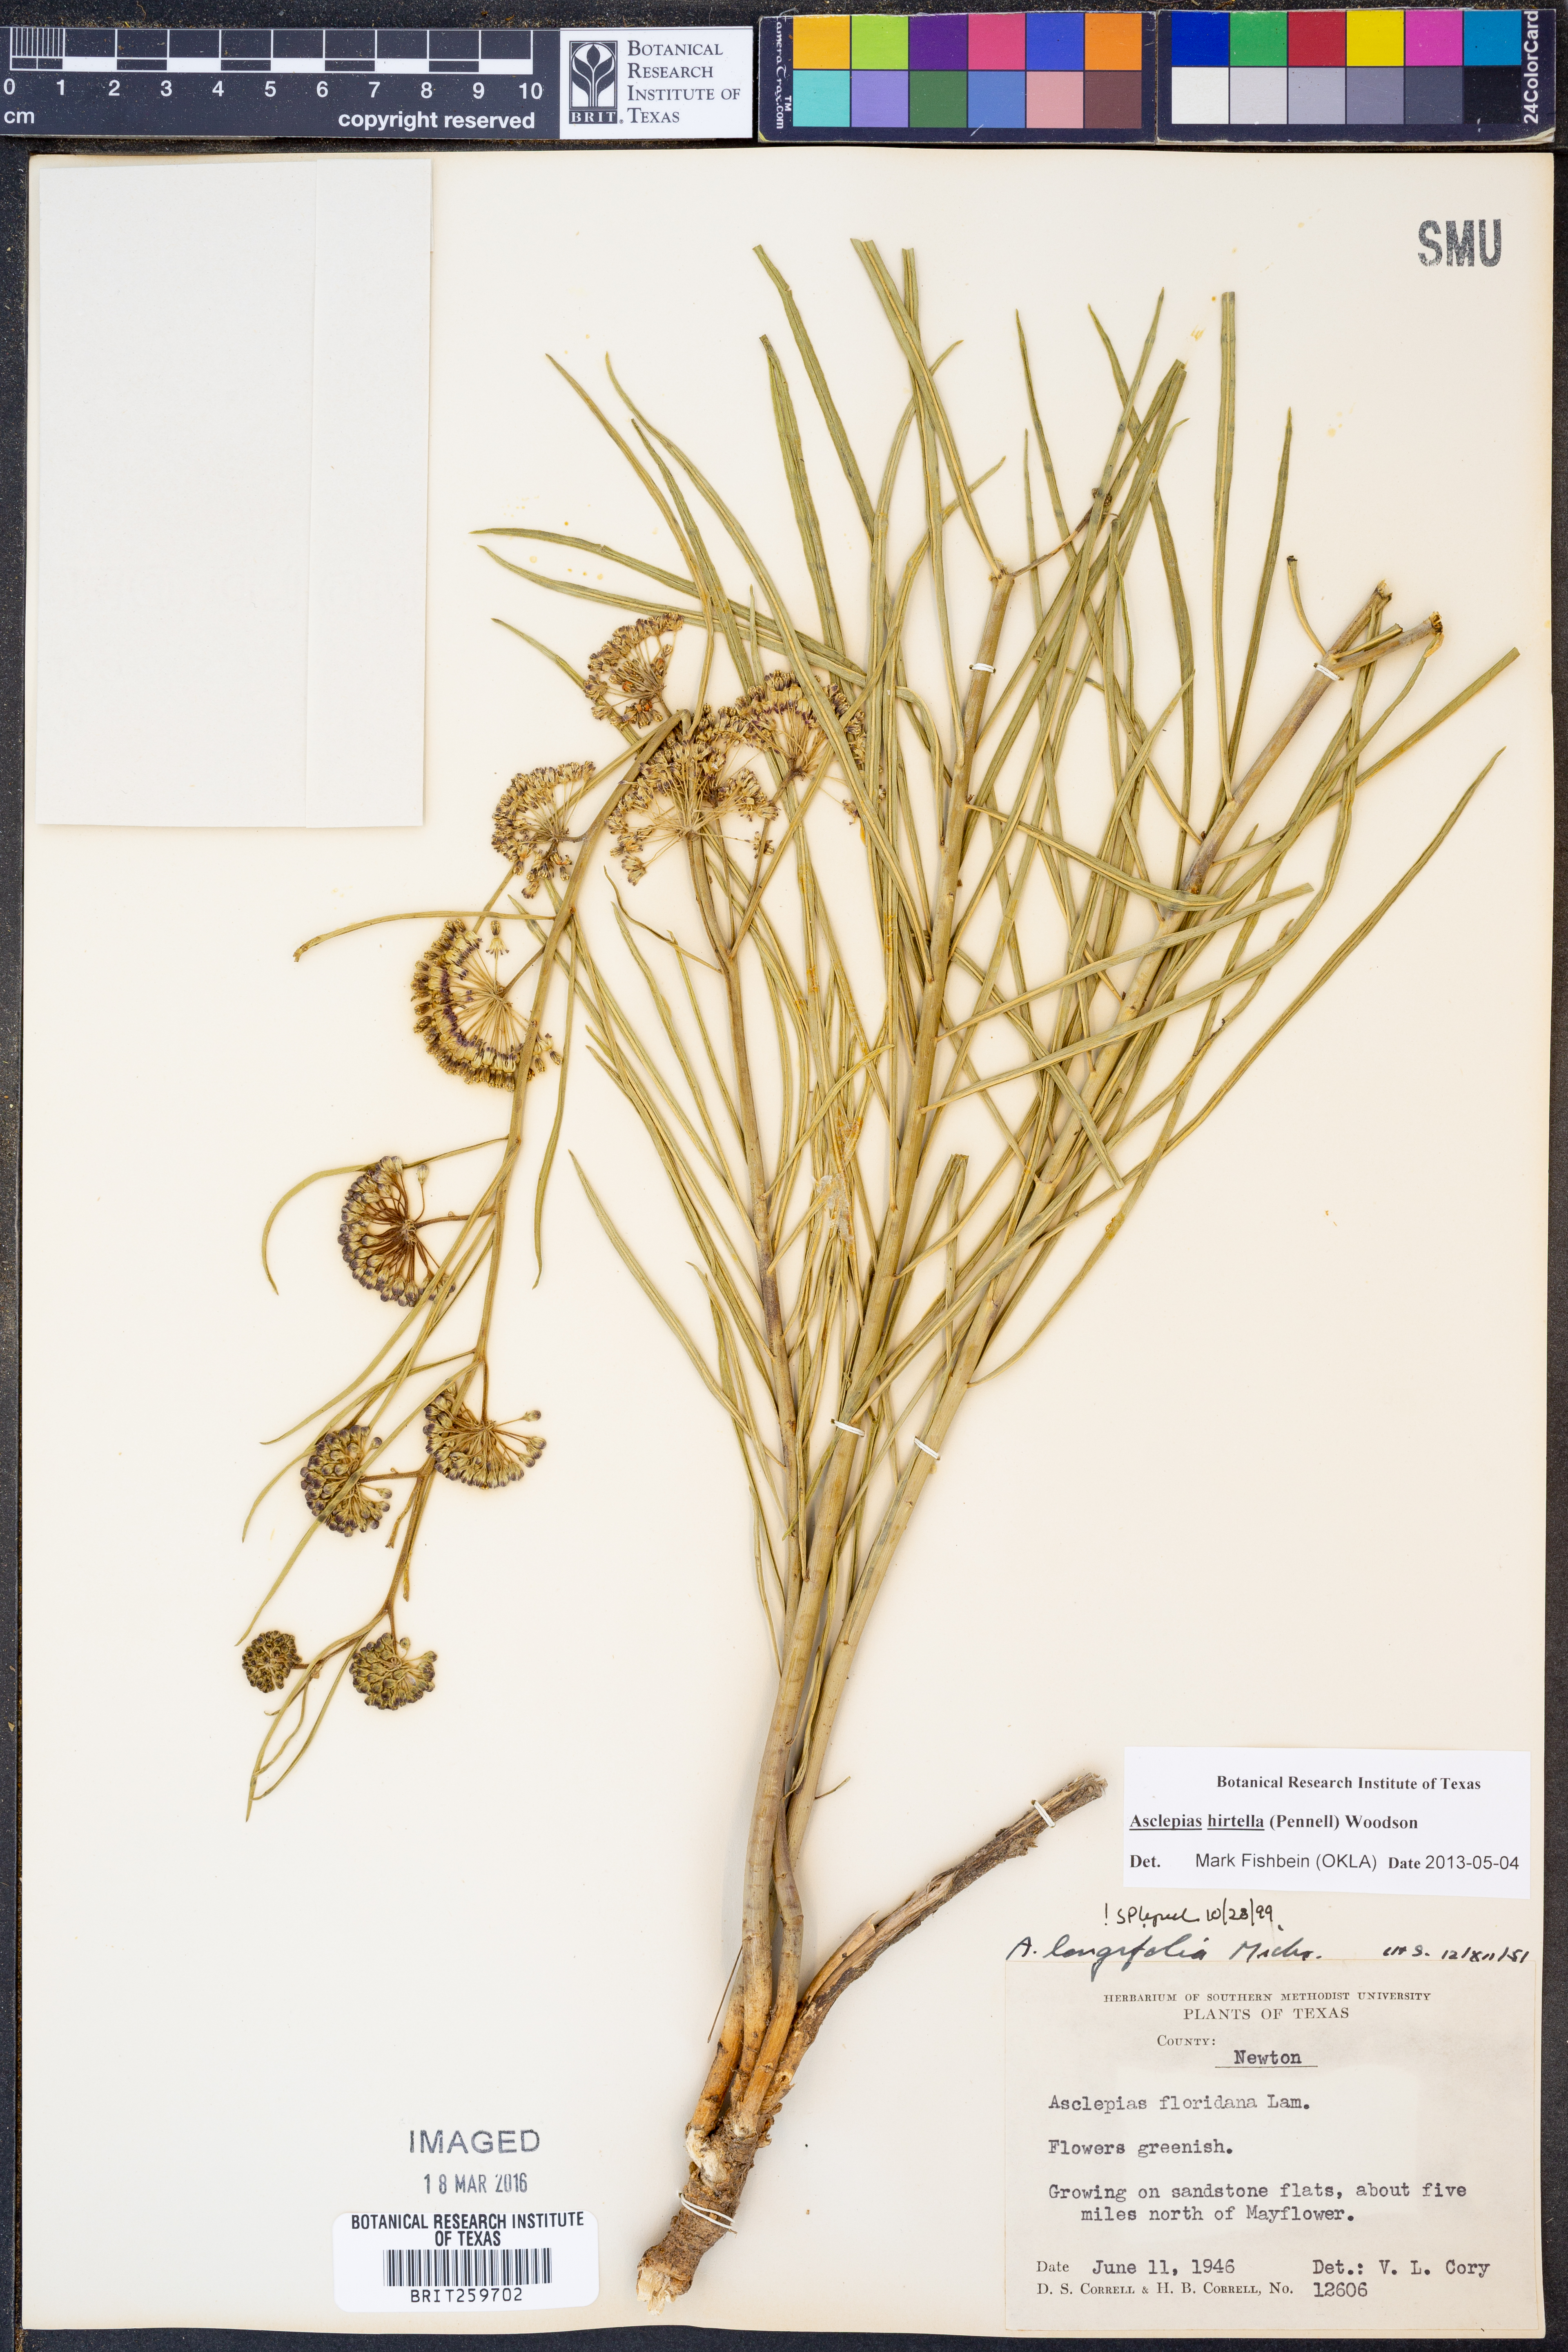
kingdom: Plantae
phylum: Tracheophyta
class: Magnoliopsida
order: Gentianales
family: Apocynaceae
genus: Asclepias
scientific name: Asclepias hirtella
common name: Prairie milkweed
